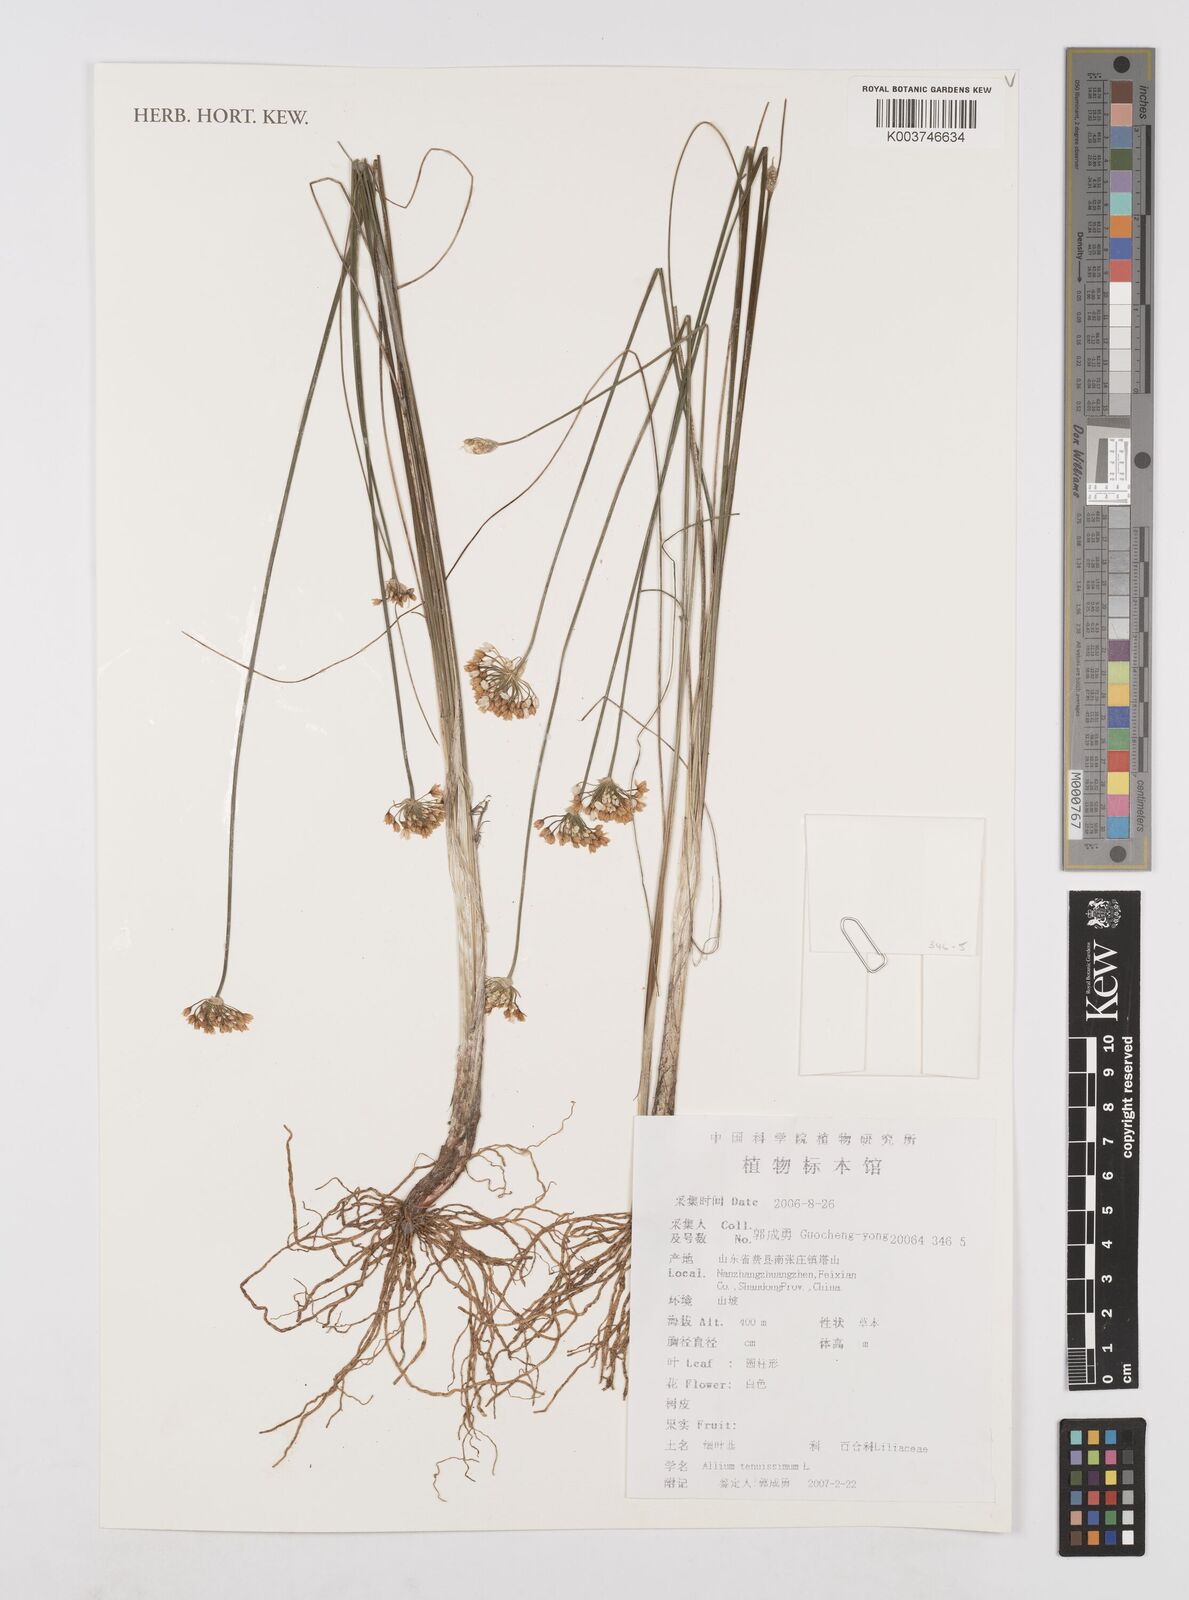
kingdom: Plantae
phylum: Tracheophyta
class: Liliopsida
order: Asparagales
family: Amaryllidaceae
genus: Allium
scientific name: Allium tenuissimum
